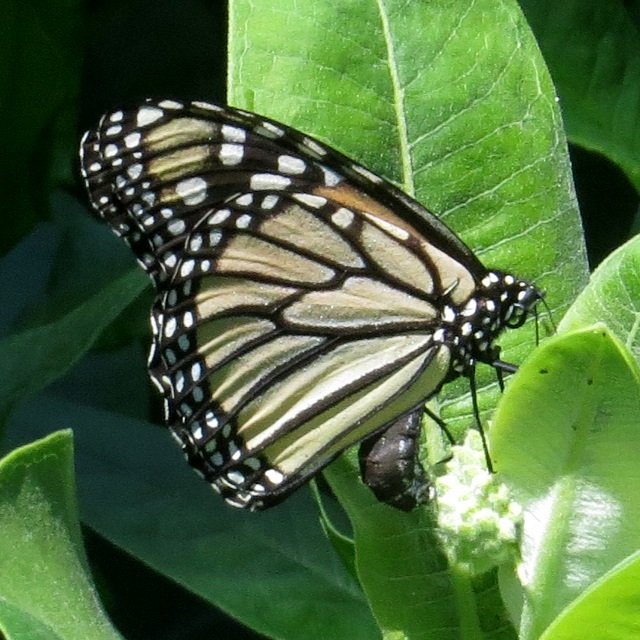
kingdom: Animalia
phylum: Arthropoda
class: Insecta
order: Lepidoptera
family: Nymphalidae
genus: Danaus
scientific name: Danaus plexippus
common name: Monarch
